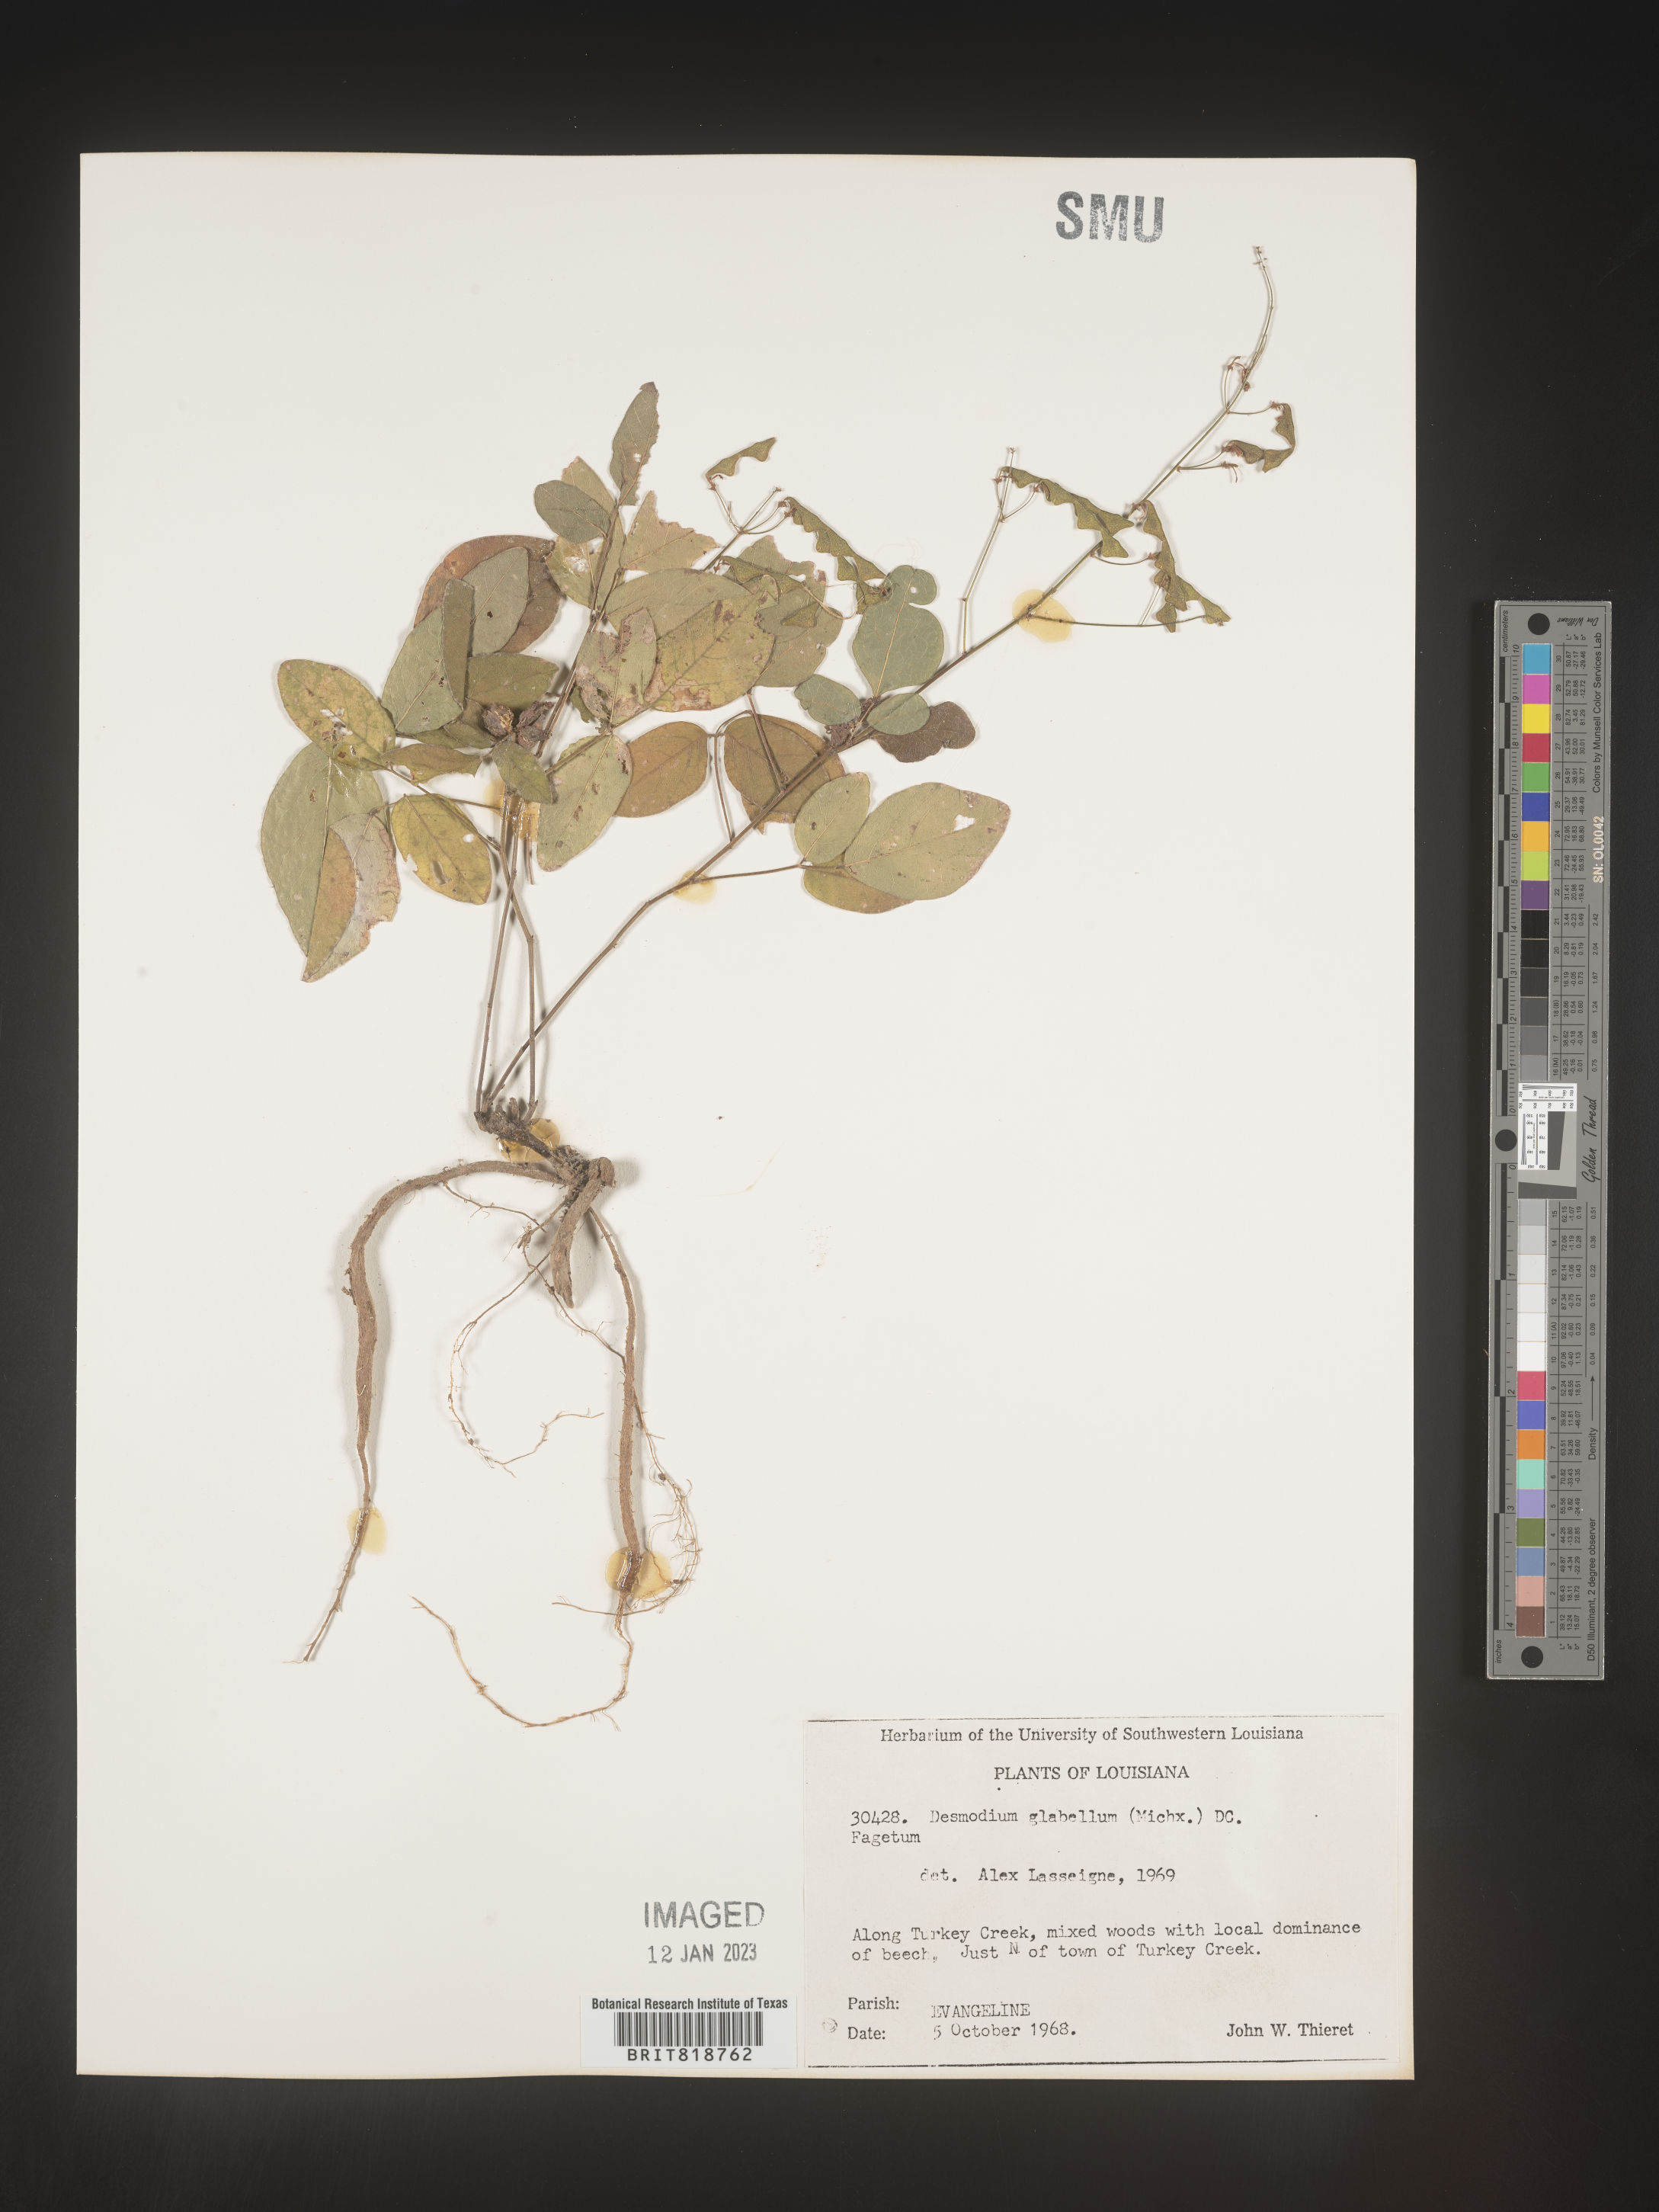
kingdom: Plantae
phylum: Tracheophyta
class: Magnoliopsida
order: Fabales
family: Fabaceae
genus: Desmodium
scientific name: Desmodium perplexum
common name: Perplexed tick trefoil
